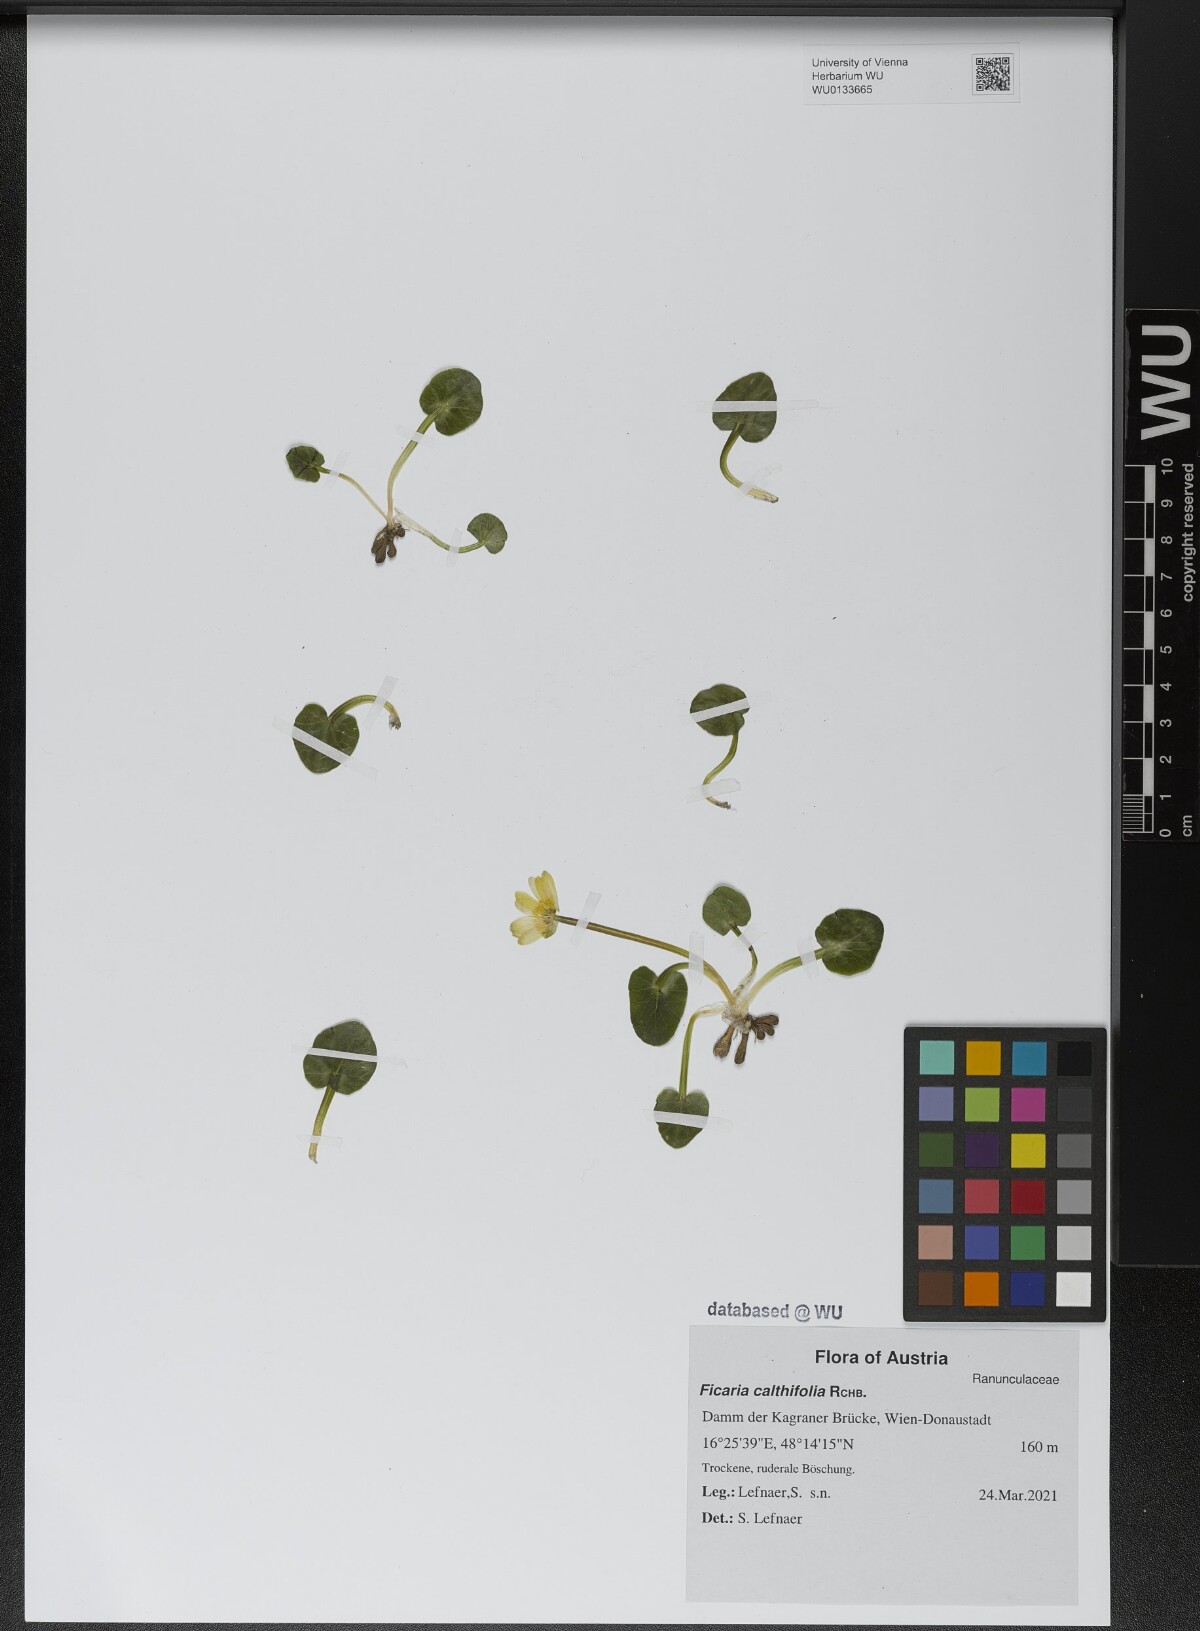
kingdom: Plantae
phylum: Tracheophyta
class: Magnoliopsida
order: Ranunculales
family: Ranunculaceae
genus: Ficaria
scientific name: Ficaria calthifolia
